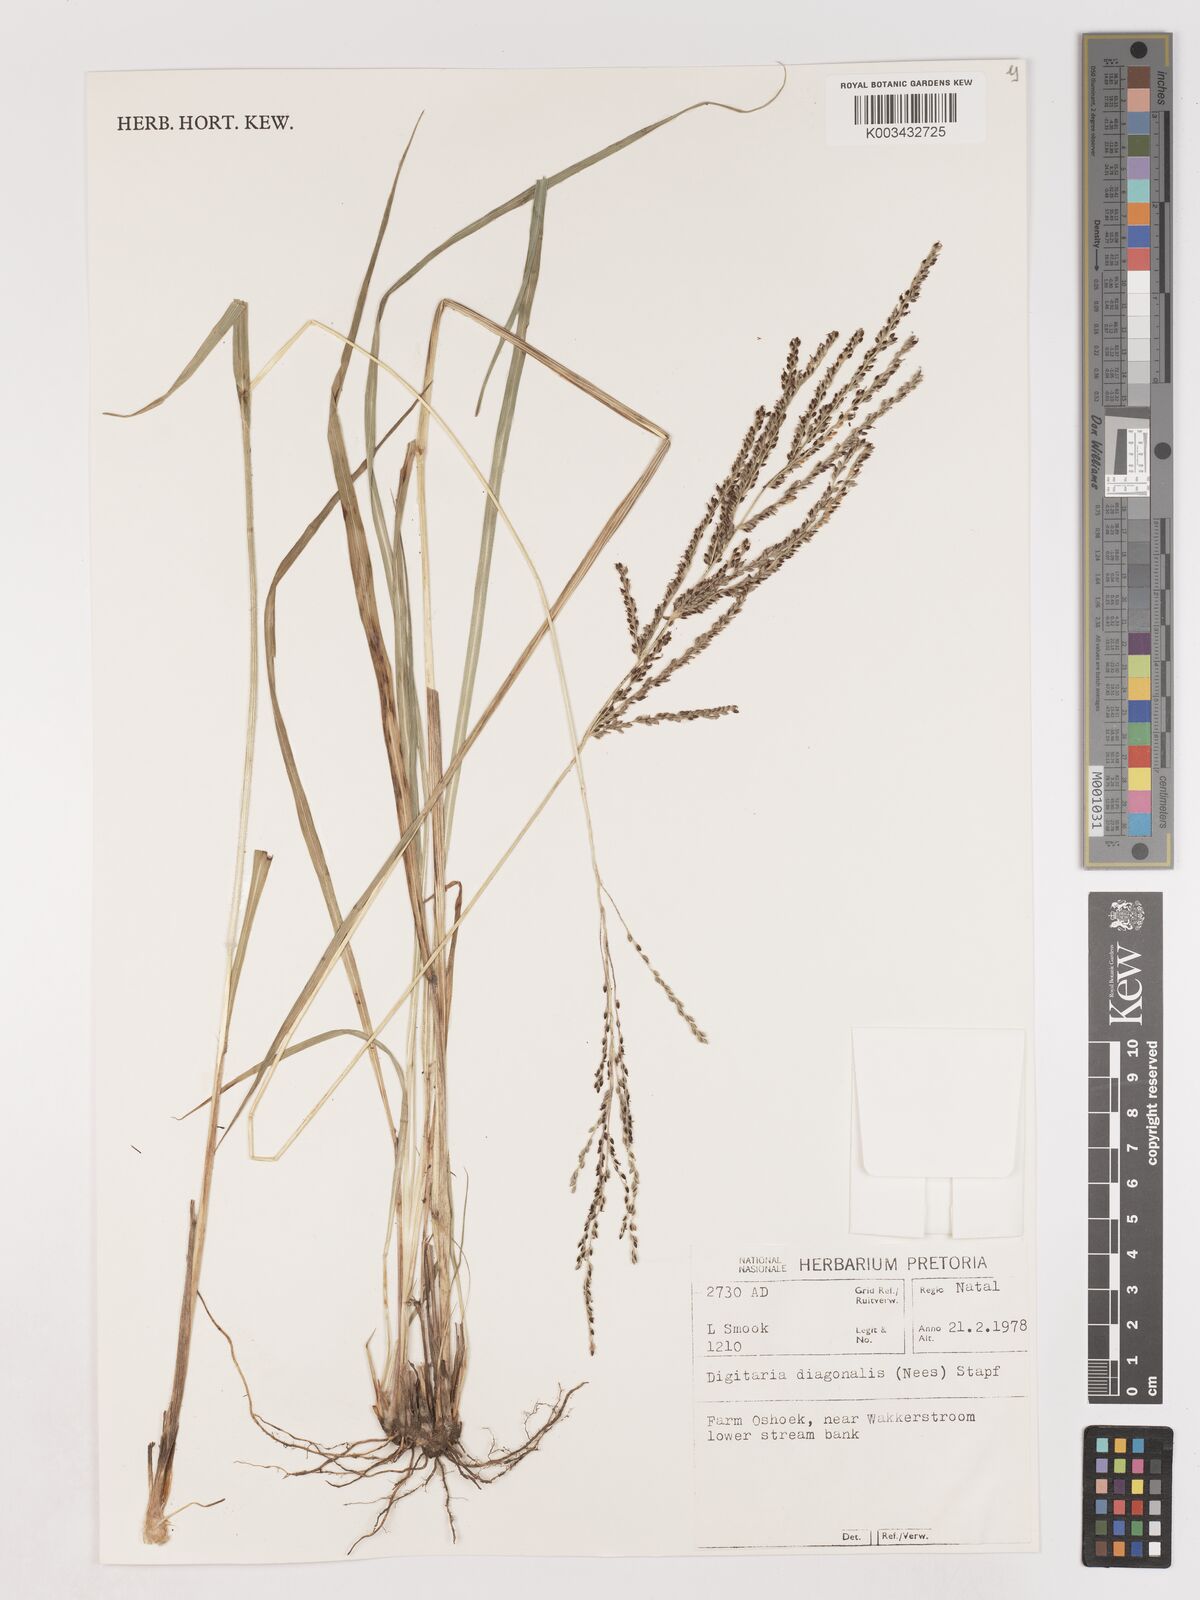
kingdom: Plantae
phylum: Tracheophyta
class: Liliopsida
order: Poales
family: Poaceae
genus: Digitaria
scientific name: Digitaria diagonalis
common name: Brown-seed finger grass
